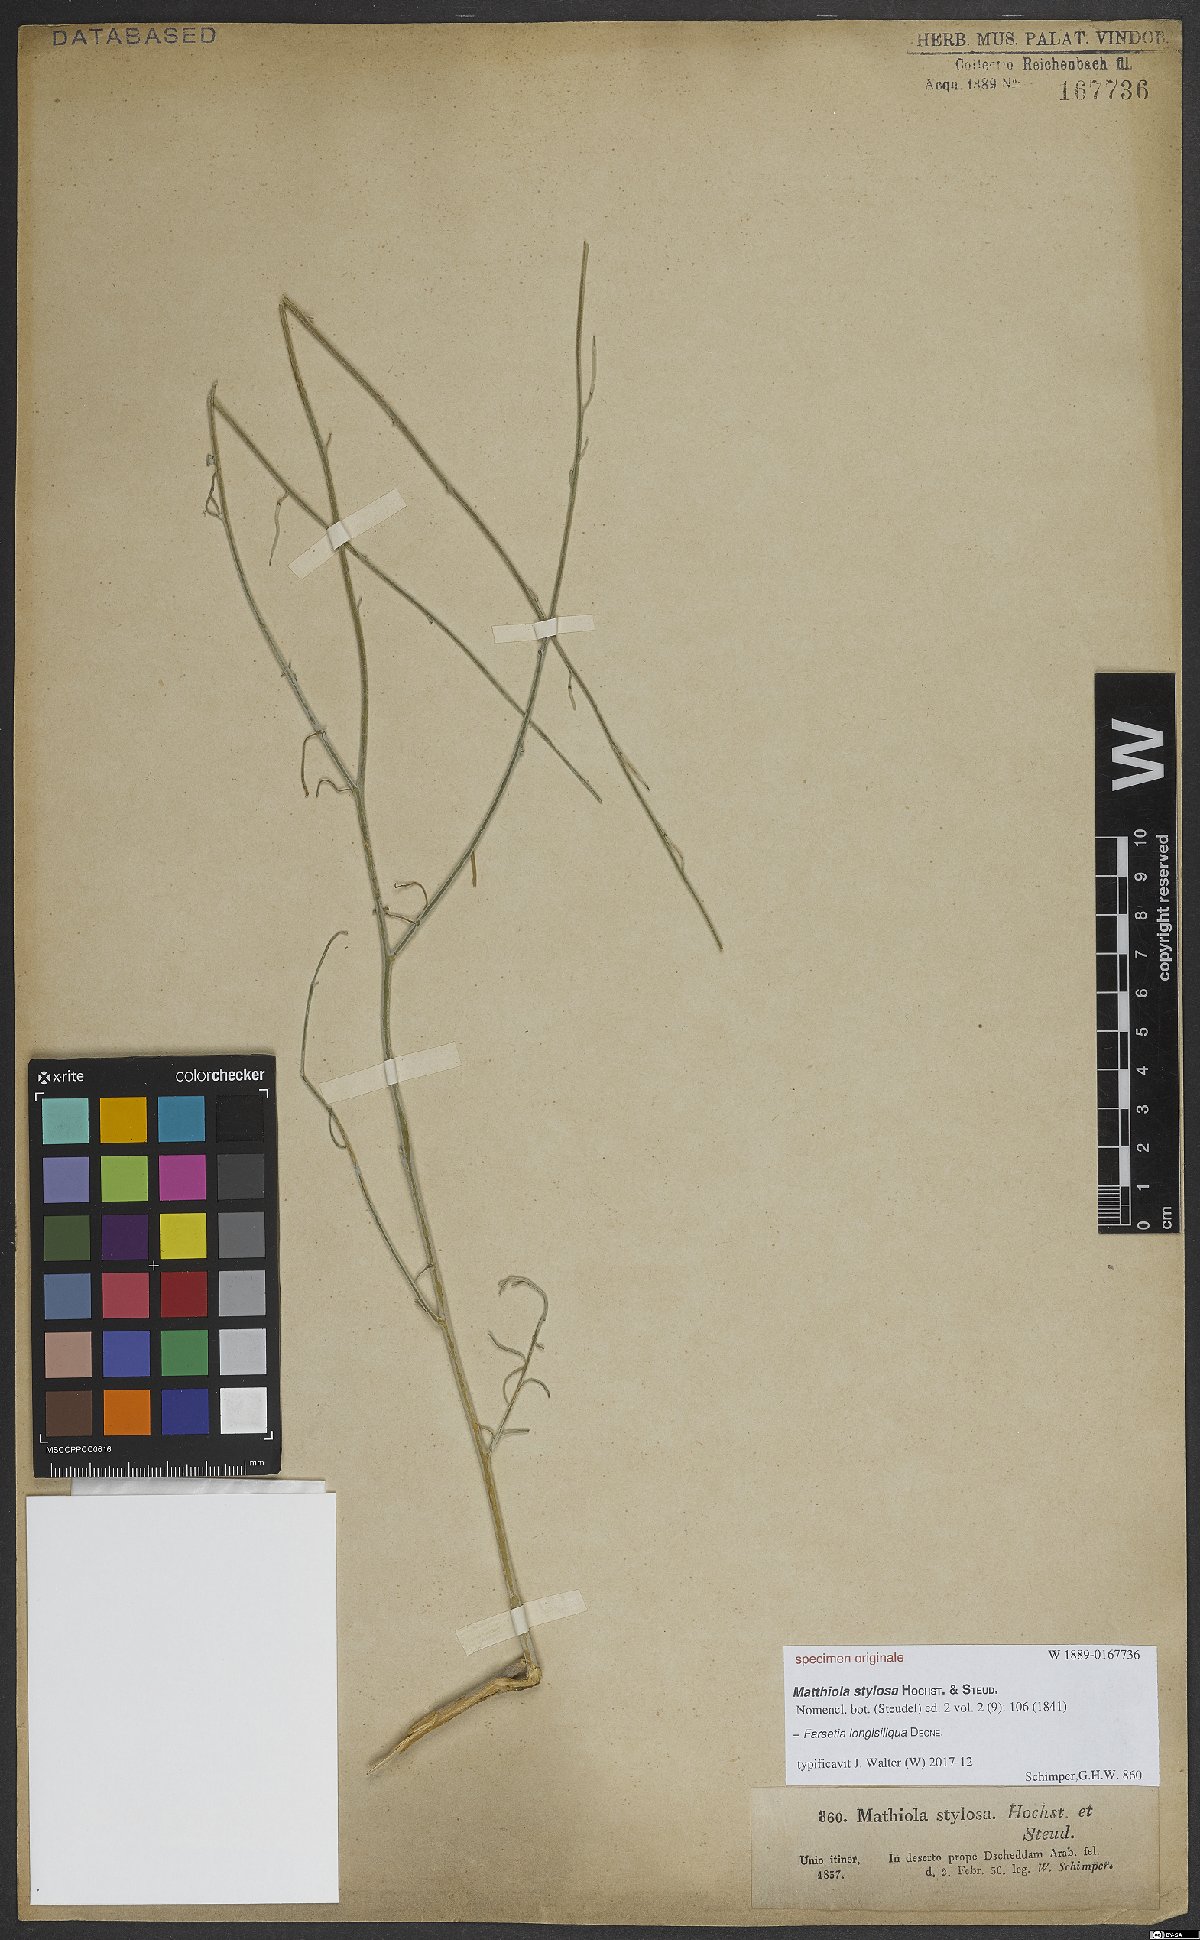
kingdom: Plantae
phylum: Tracheophyta
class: Magnoliopsida
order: Brassicales
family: Brassicaceae
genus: Farsetia
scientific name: Farsetia longisiliqua
